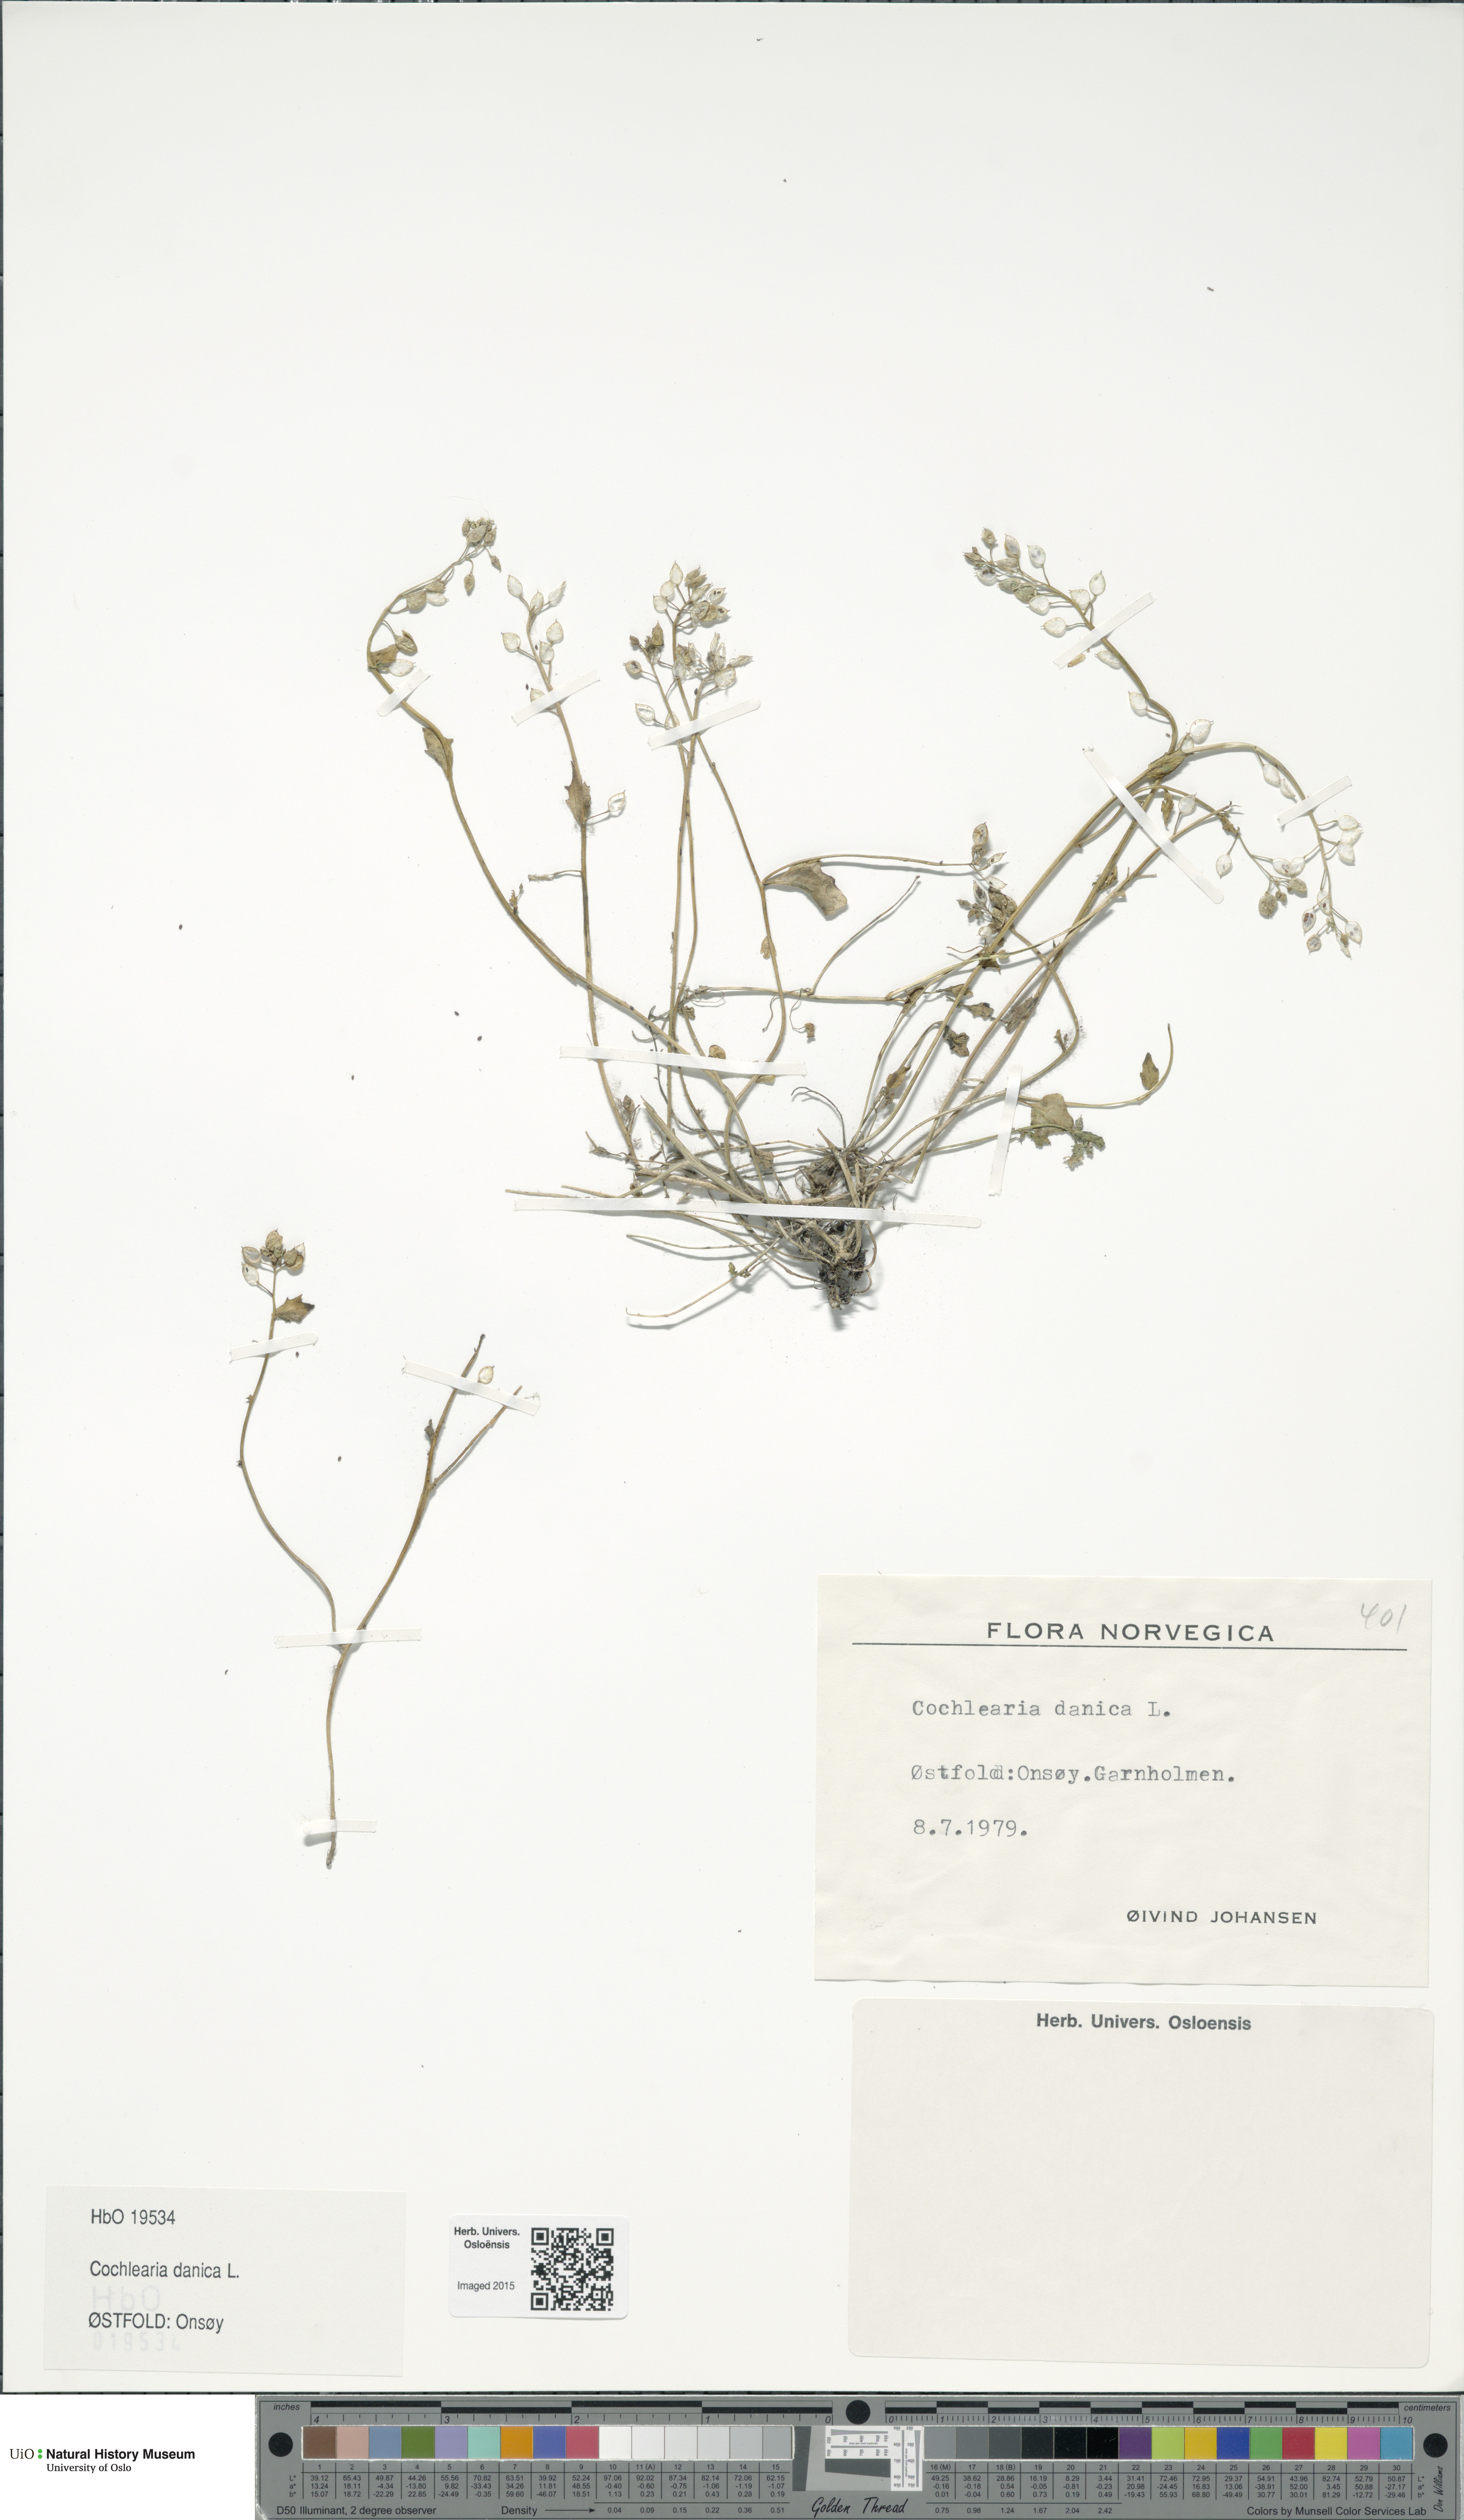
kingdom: Plantae
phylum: Tracheophyta
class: Magnoliopsida
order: Brassicales
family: Brassicaceae
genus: Cochlearia
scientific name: Cochlearia danica
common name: Early scurvygrass
